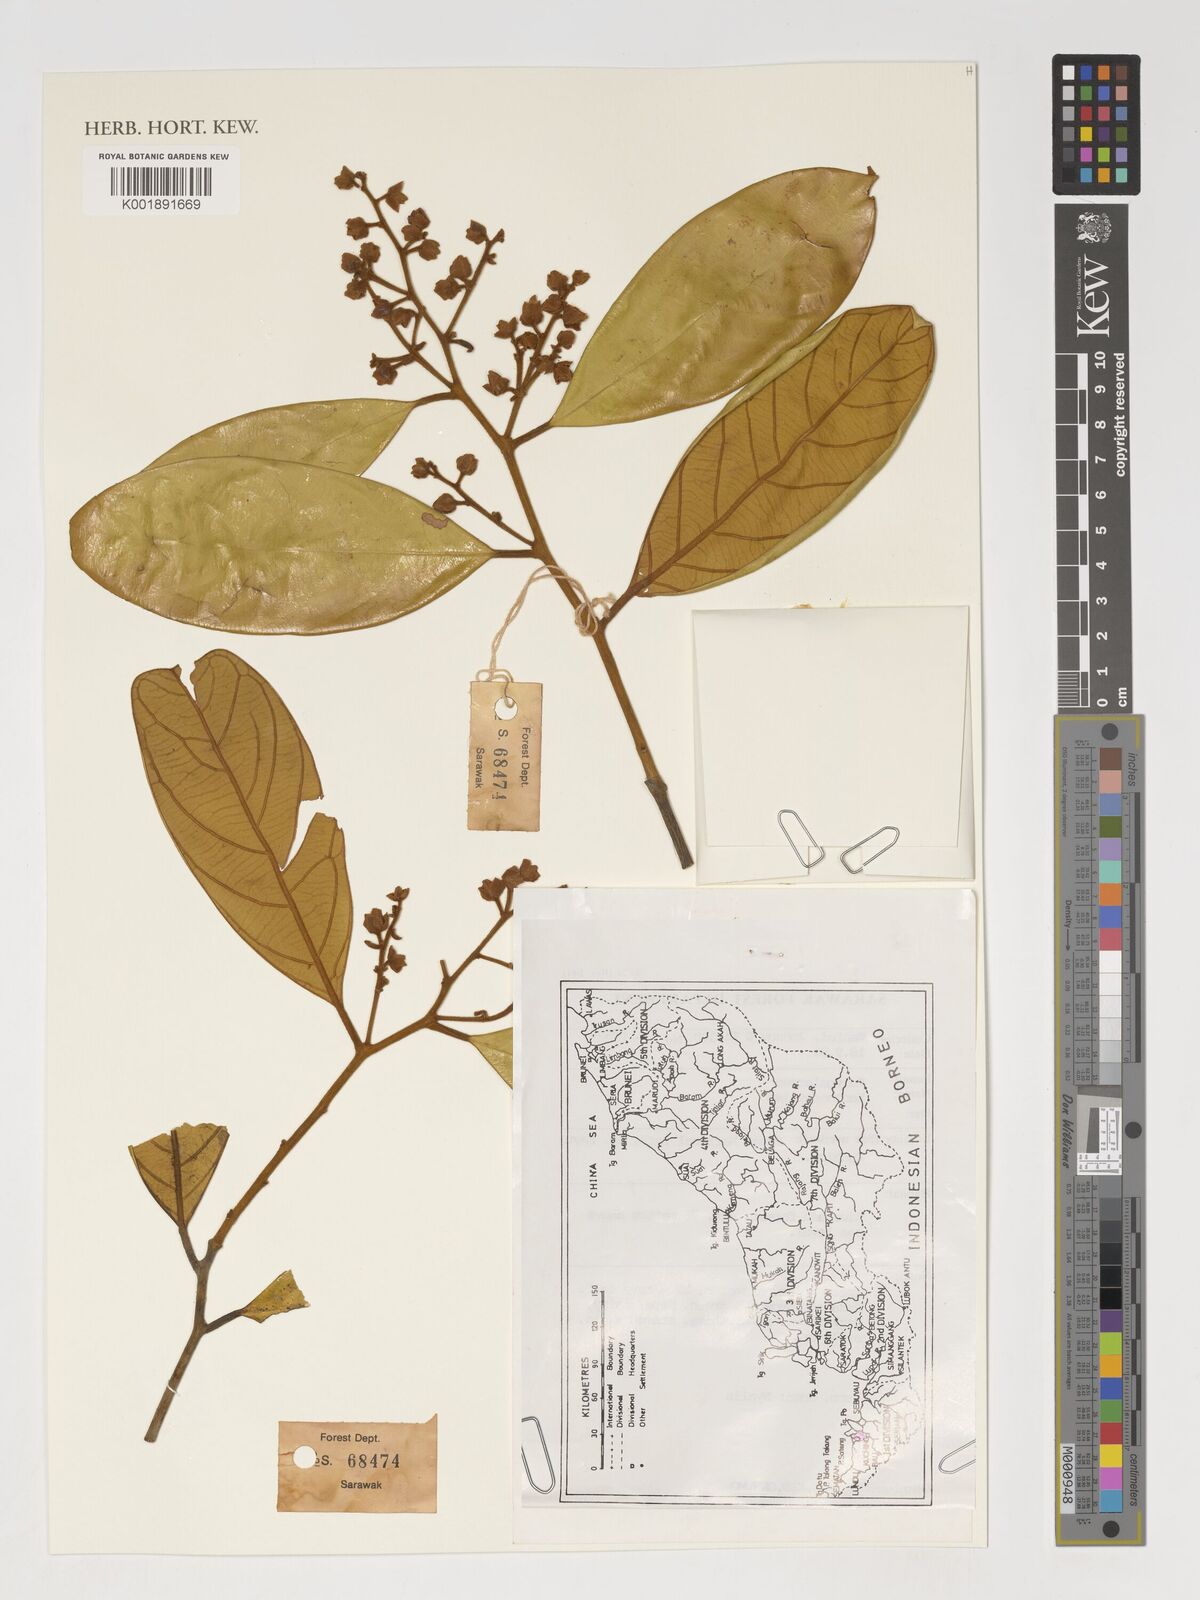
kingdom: Plantae
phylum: Tracheophyta
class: Magnoliopsida
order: Fabales
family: Polygalaceae
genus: Xanthophyllum
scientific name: Xanthophyllum
